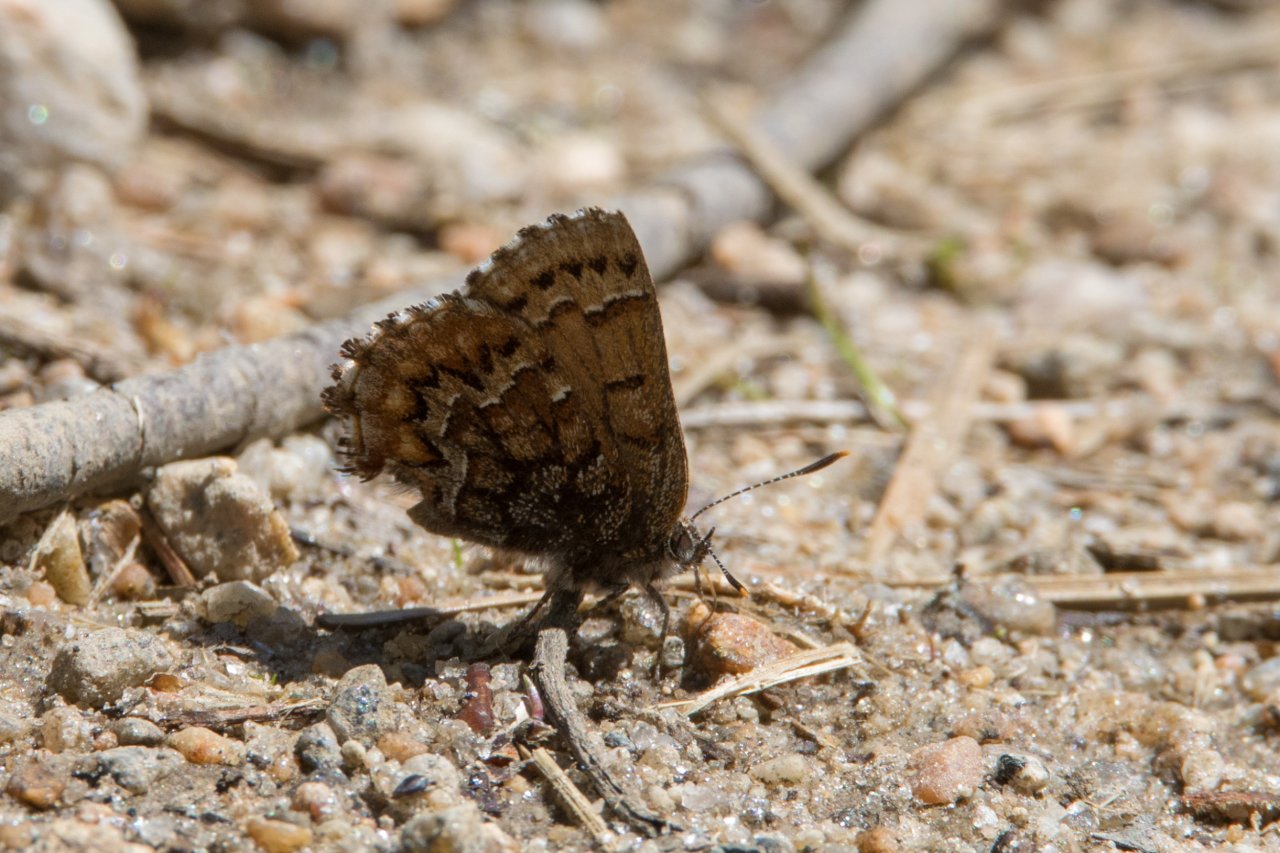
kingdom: Animalia
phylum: Arthropoda
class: Insecta
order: Lepidoptera
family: Lycaenidae
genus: Incisalia
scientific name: Incisalia niphon
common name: Eastern Pine Elfin
